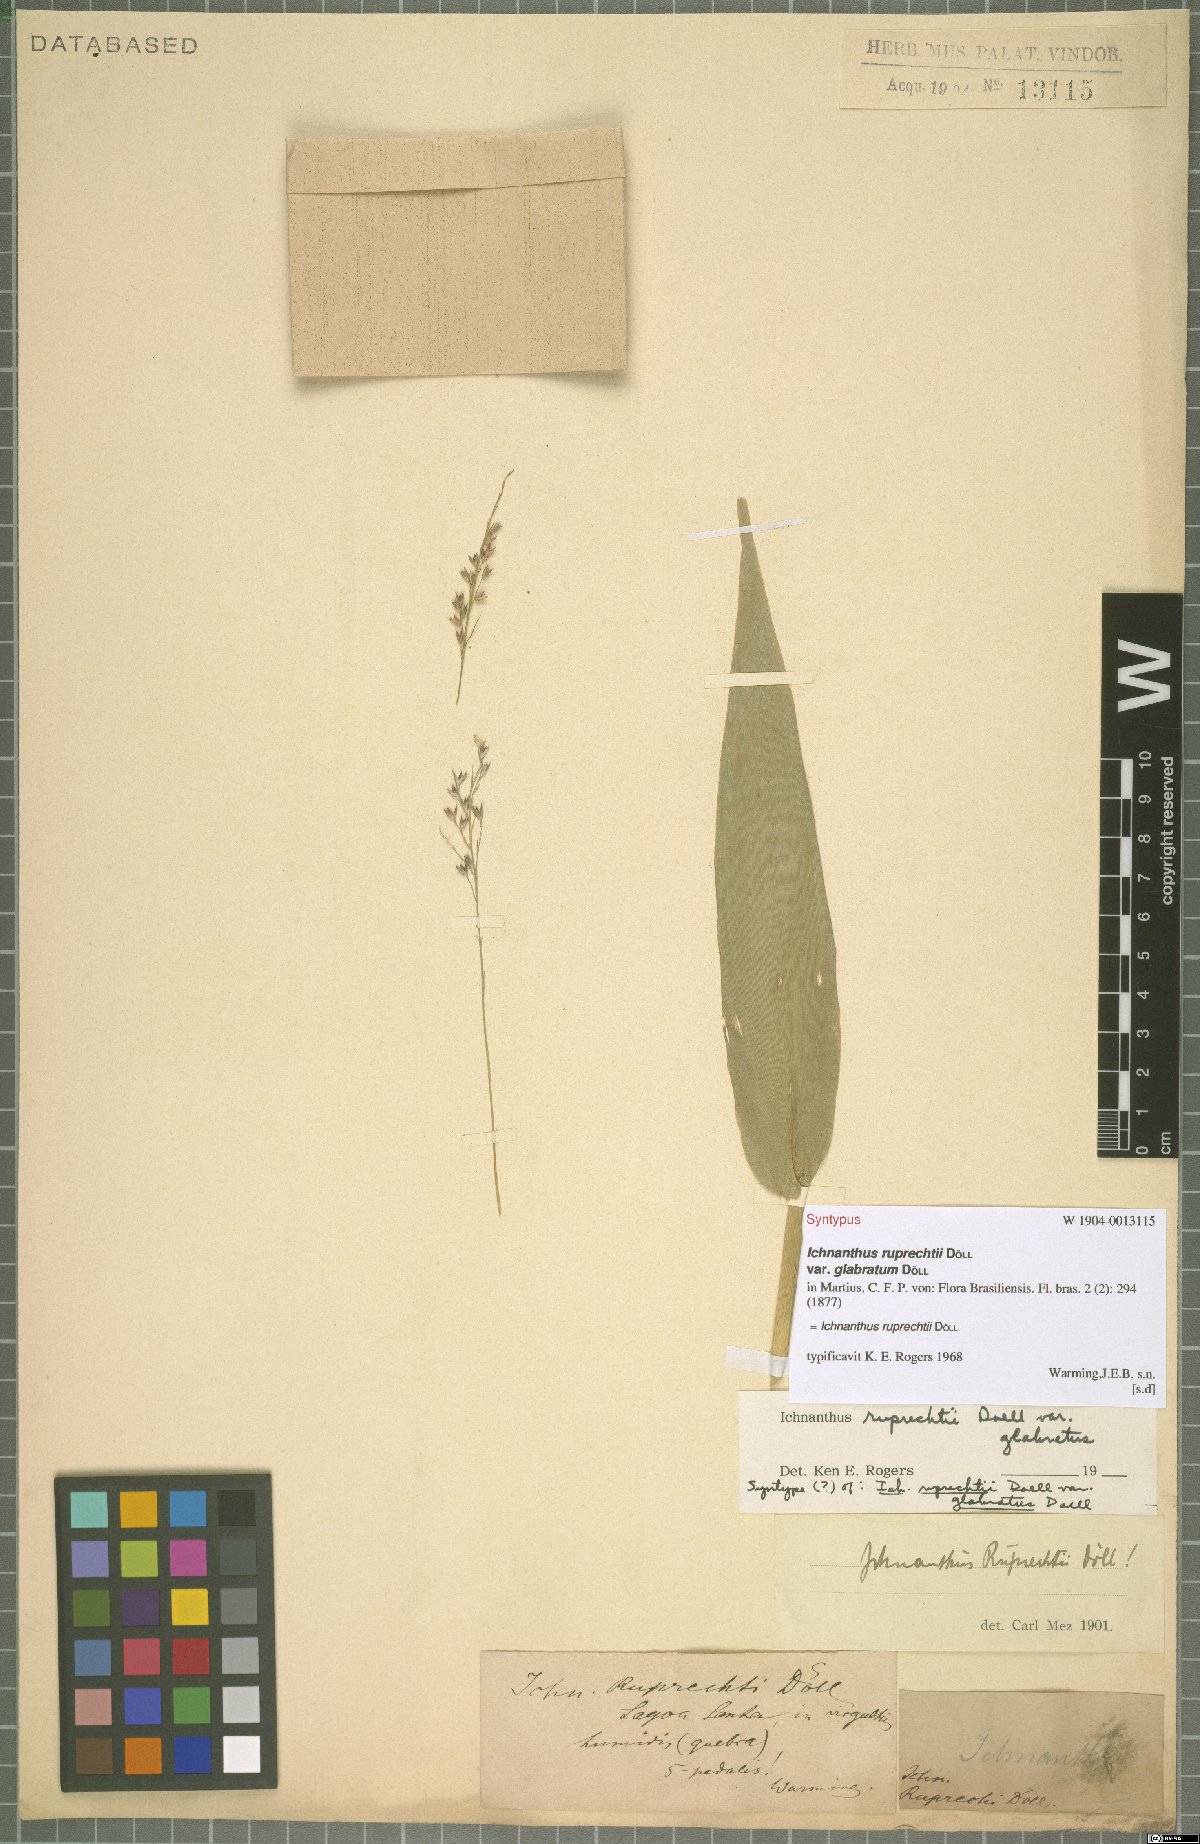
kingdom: Plantae
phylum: Tracheophyta
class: Liliopsida
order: Poales
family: Poaceae
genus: Ichnanthus
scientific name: Ichnanthus ruprechtii
